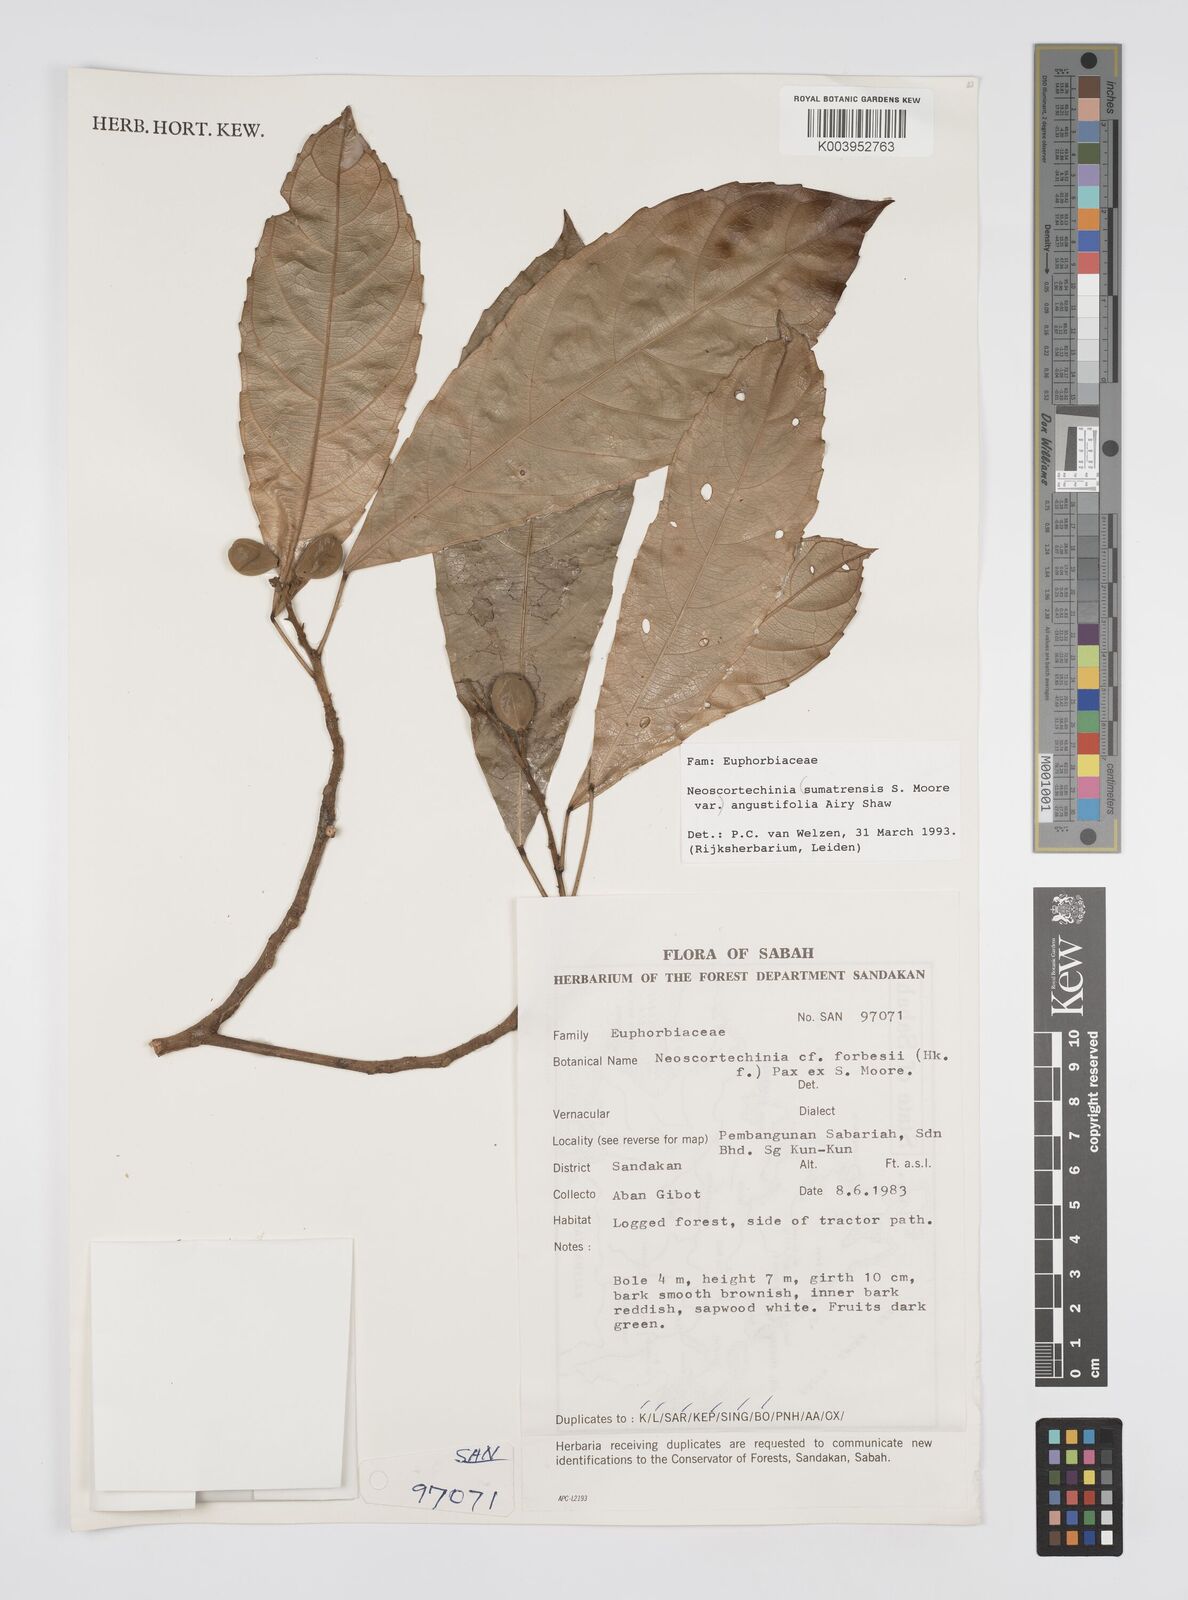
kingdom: Plantae
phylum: Tracheophyta
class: Magnoliopsida
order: Malpighiales
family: Euphorbiaceae
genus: Neoscortechinia
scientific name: Neoscortechinia angustifolia
